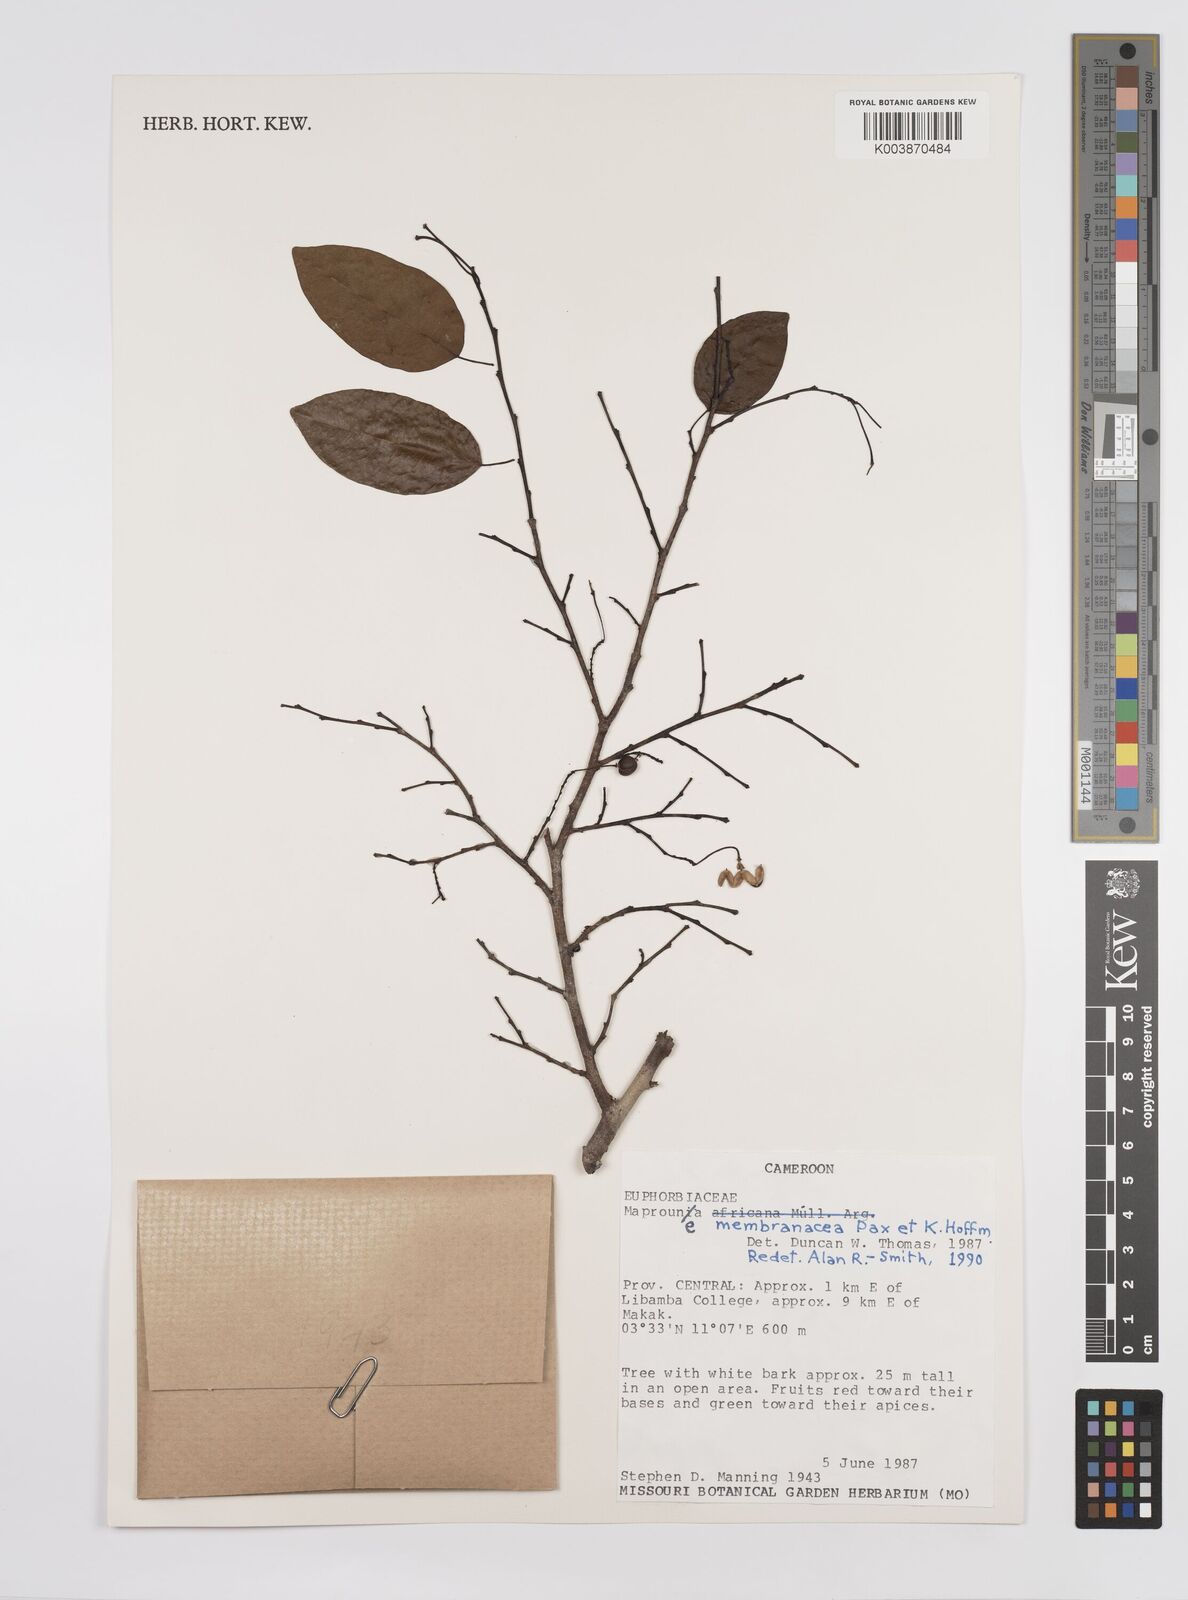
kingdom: Plantae
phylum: Tracheophyta
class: Magnoliopsida
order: Malpighiales
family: Euphorbiaceae
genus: Maprounea
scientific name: Maprounea membranacea
